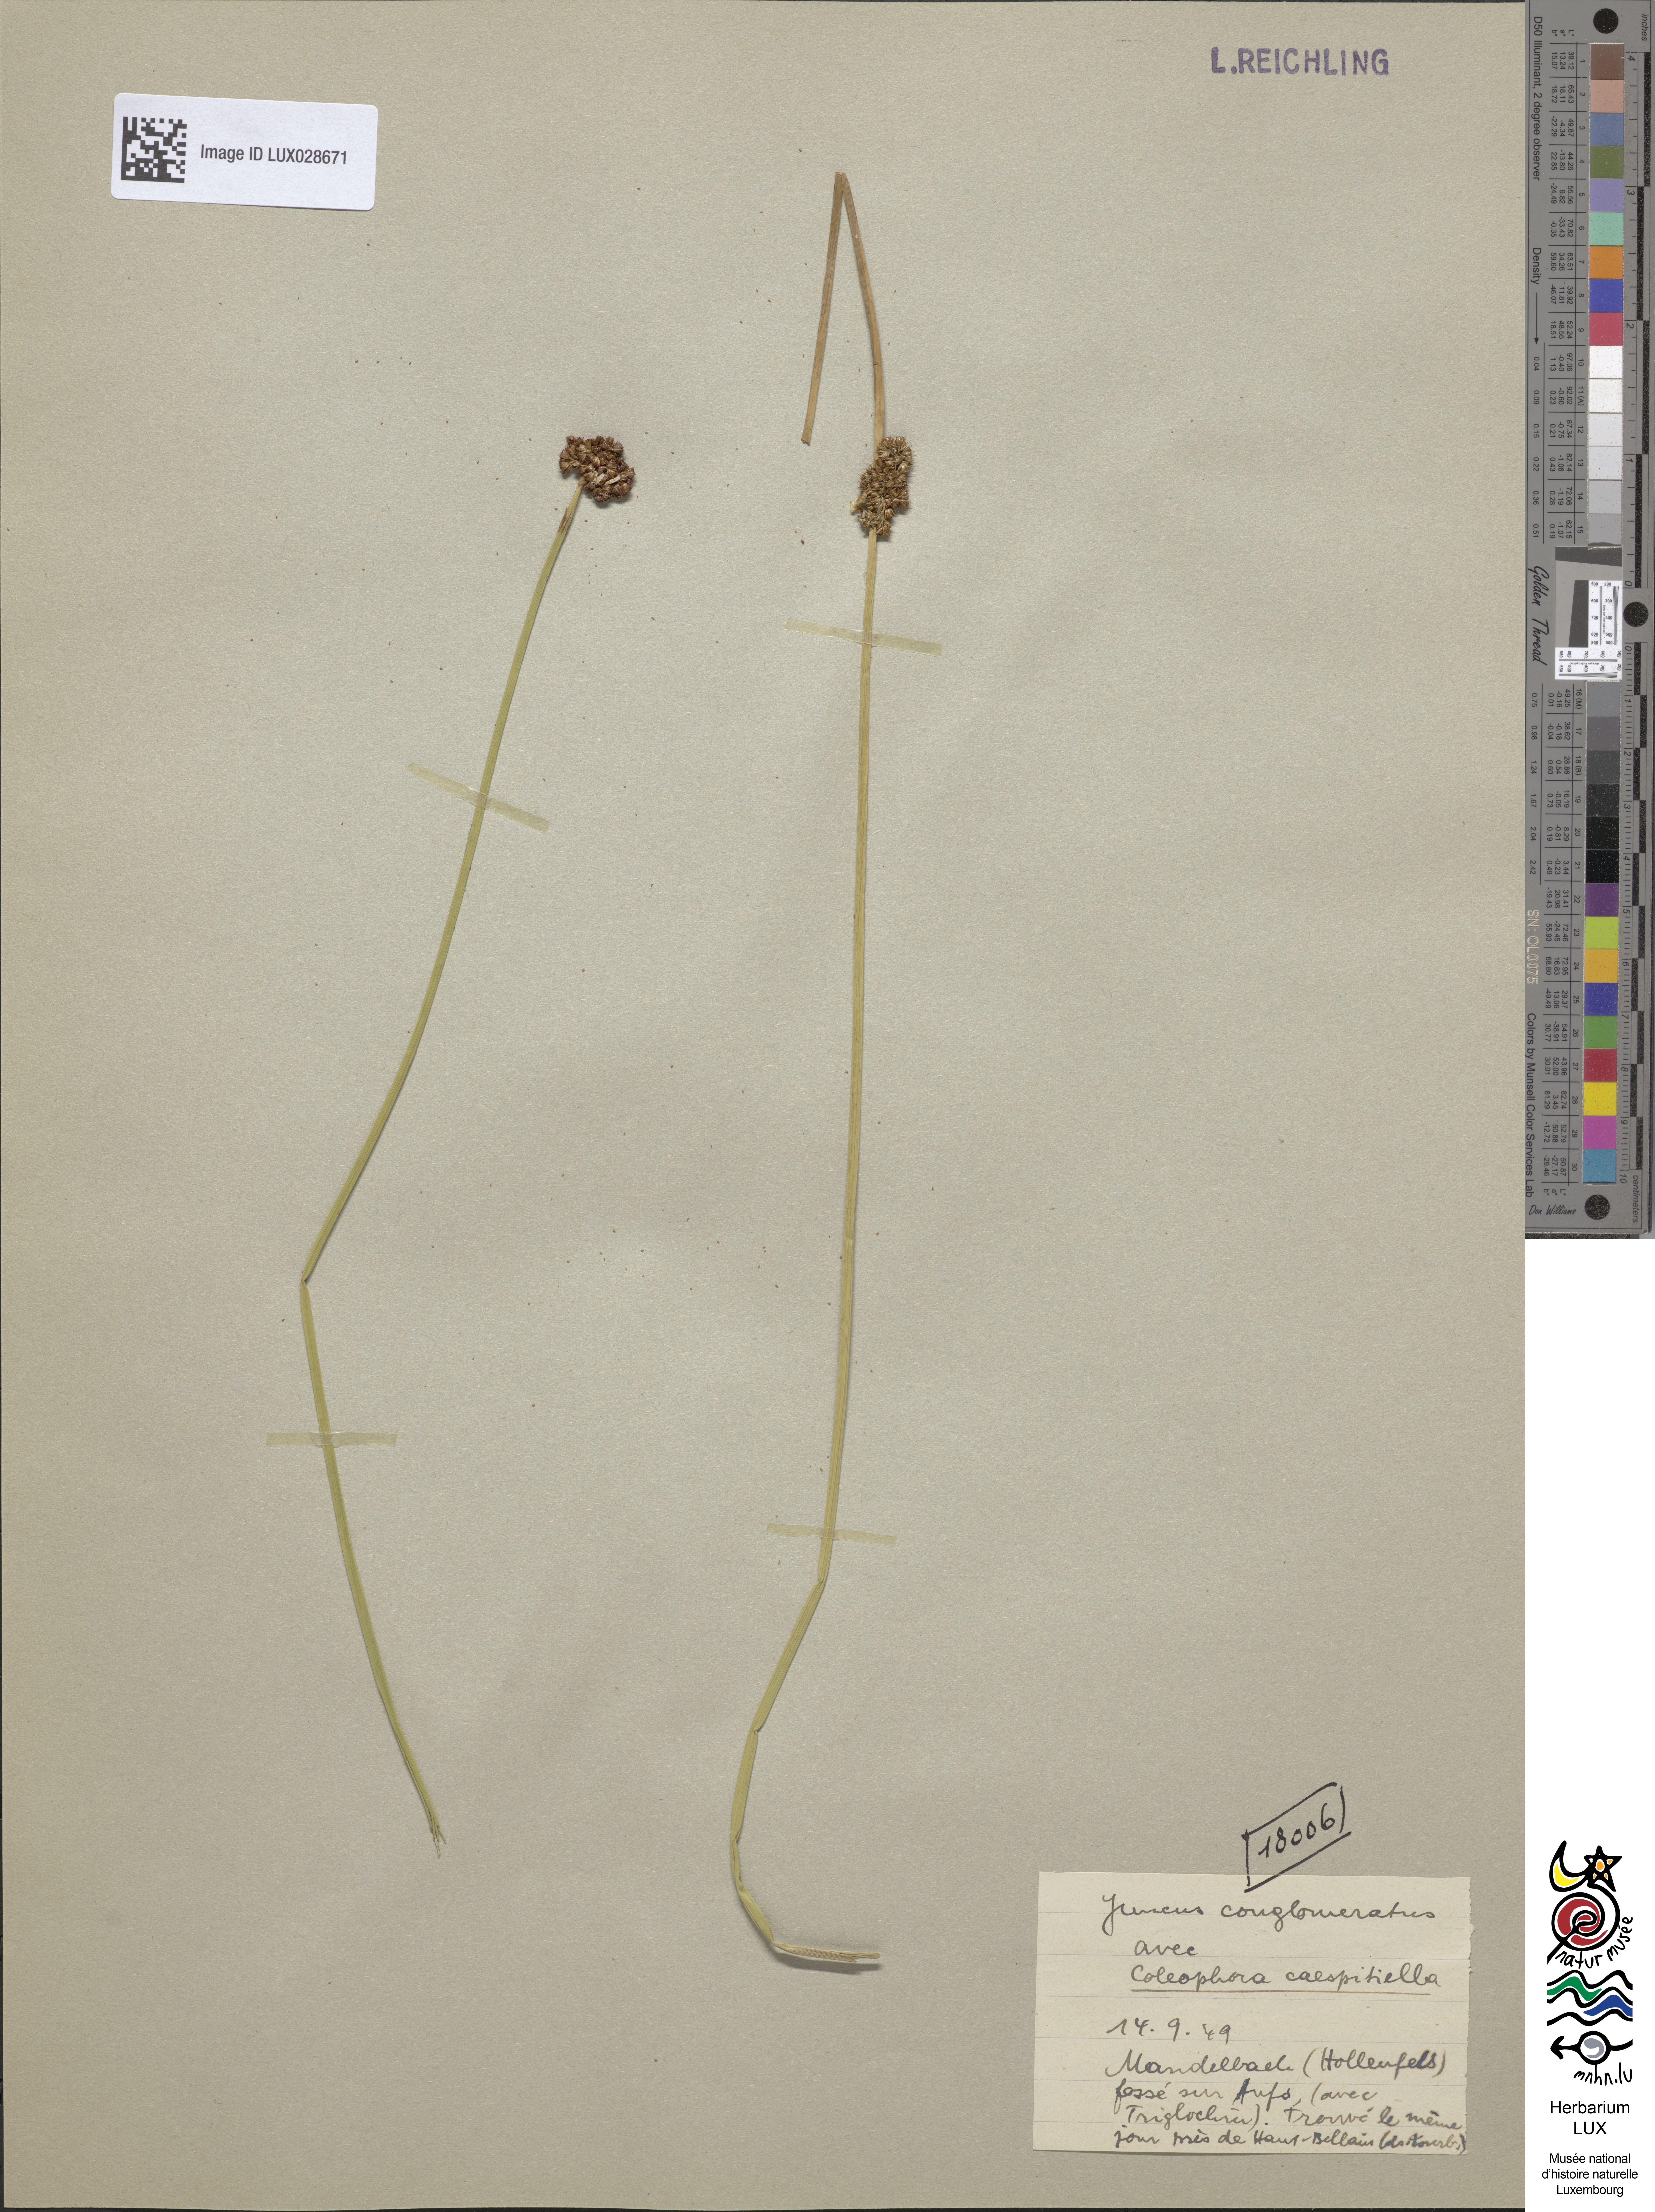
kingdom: Plantae
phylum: Tracheophyta
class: Liliopsida
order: Poales
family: Juncaceae
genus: Juncus
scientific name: Juncus conglomeratus
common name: Compact rush
